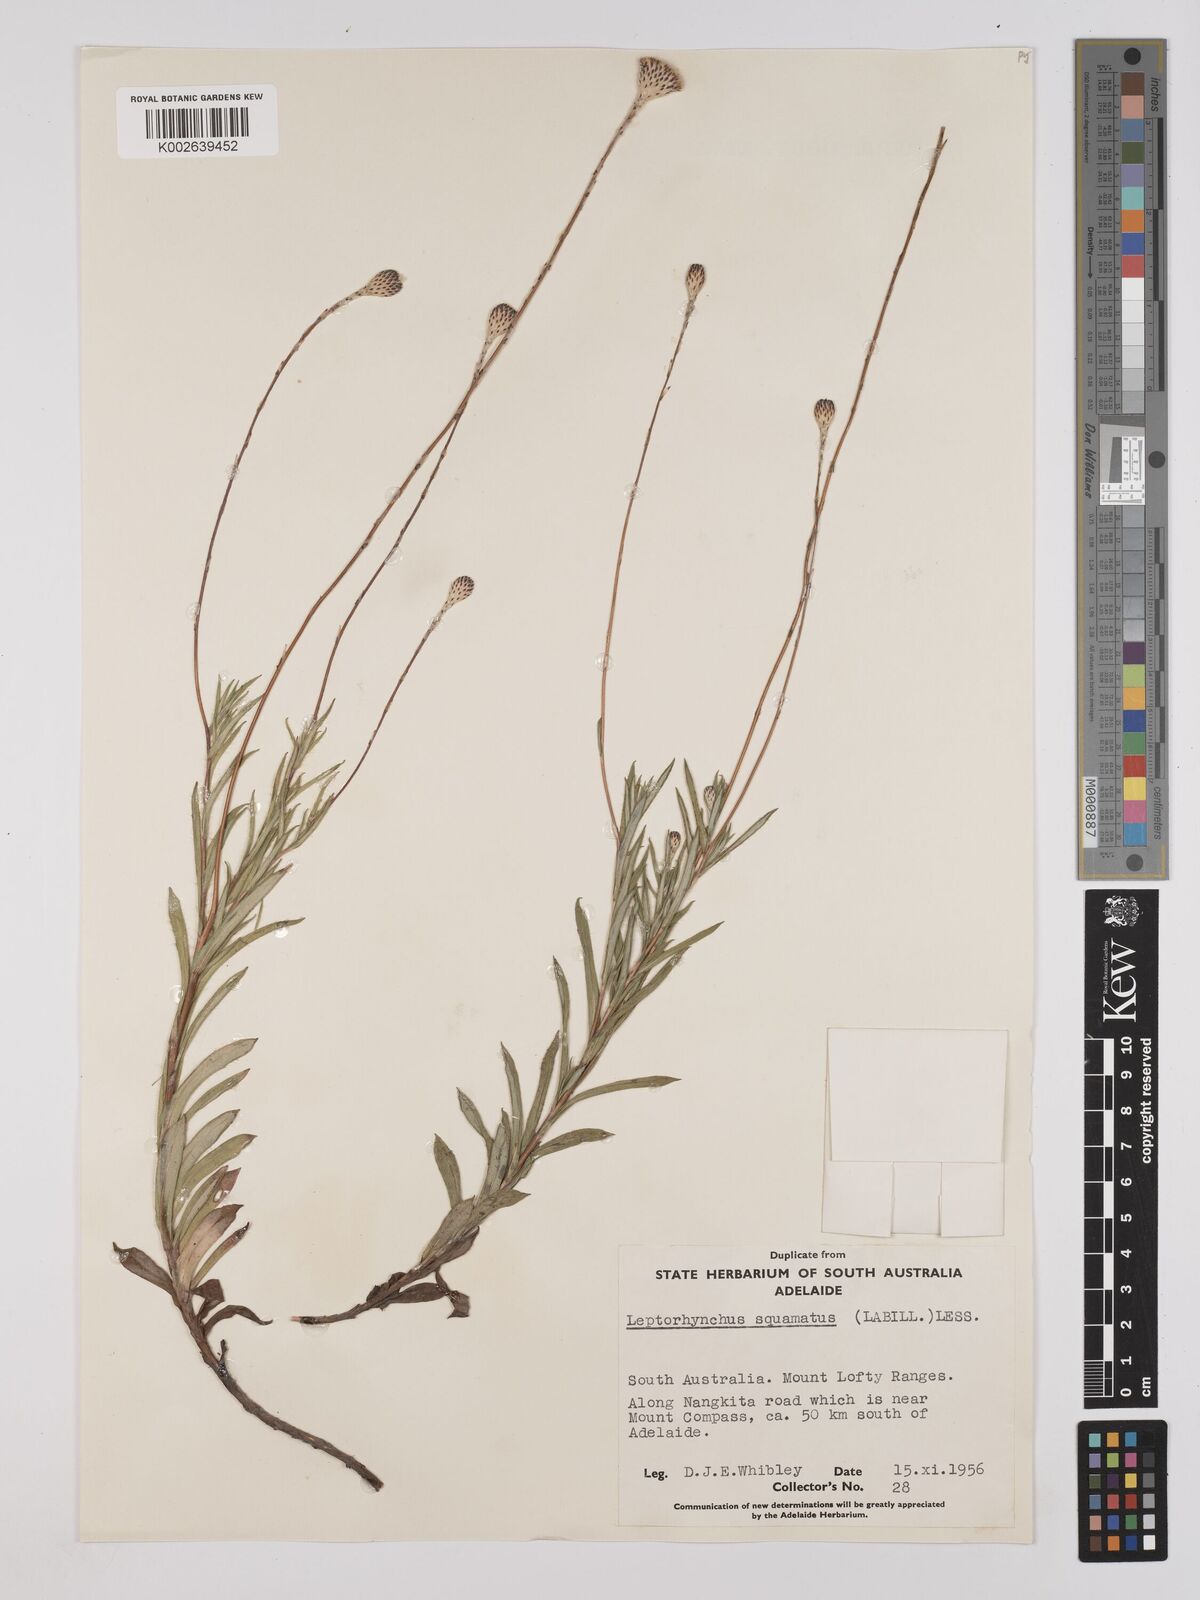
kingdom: Plantae
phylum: Tracheophyta
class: Magnoliopsida
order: Asterales
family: Asteraceae
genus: Leptorhynchos
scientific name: Leptorhynchos squamatus
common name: Scaly-buttons
